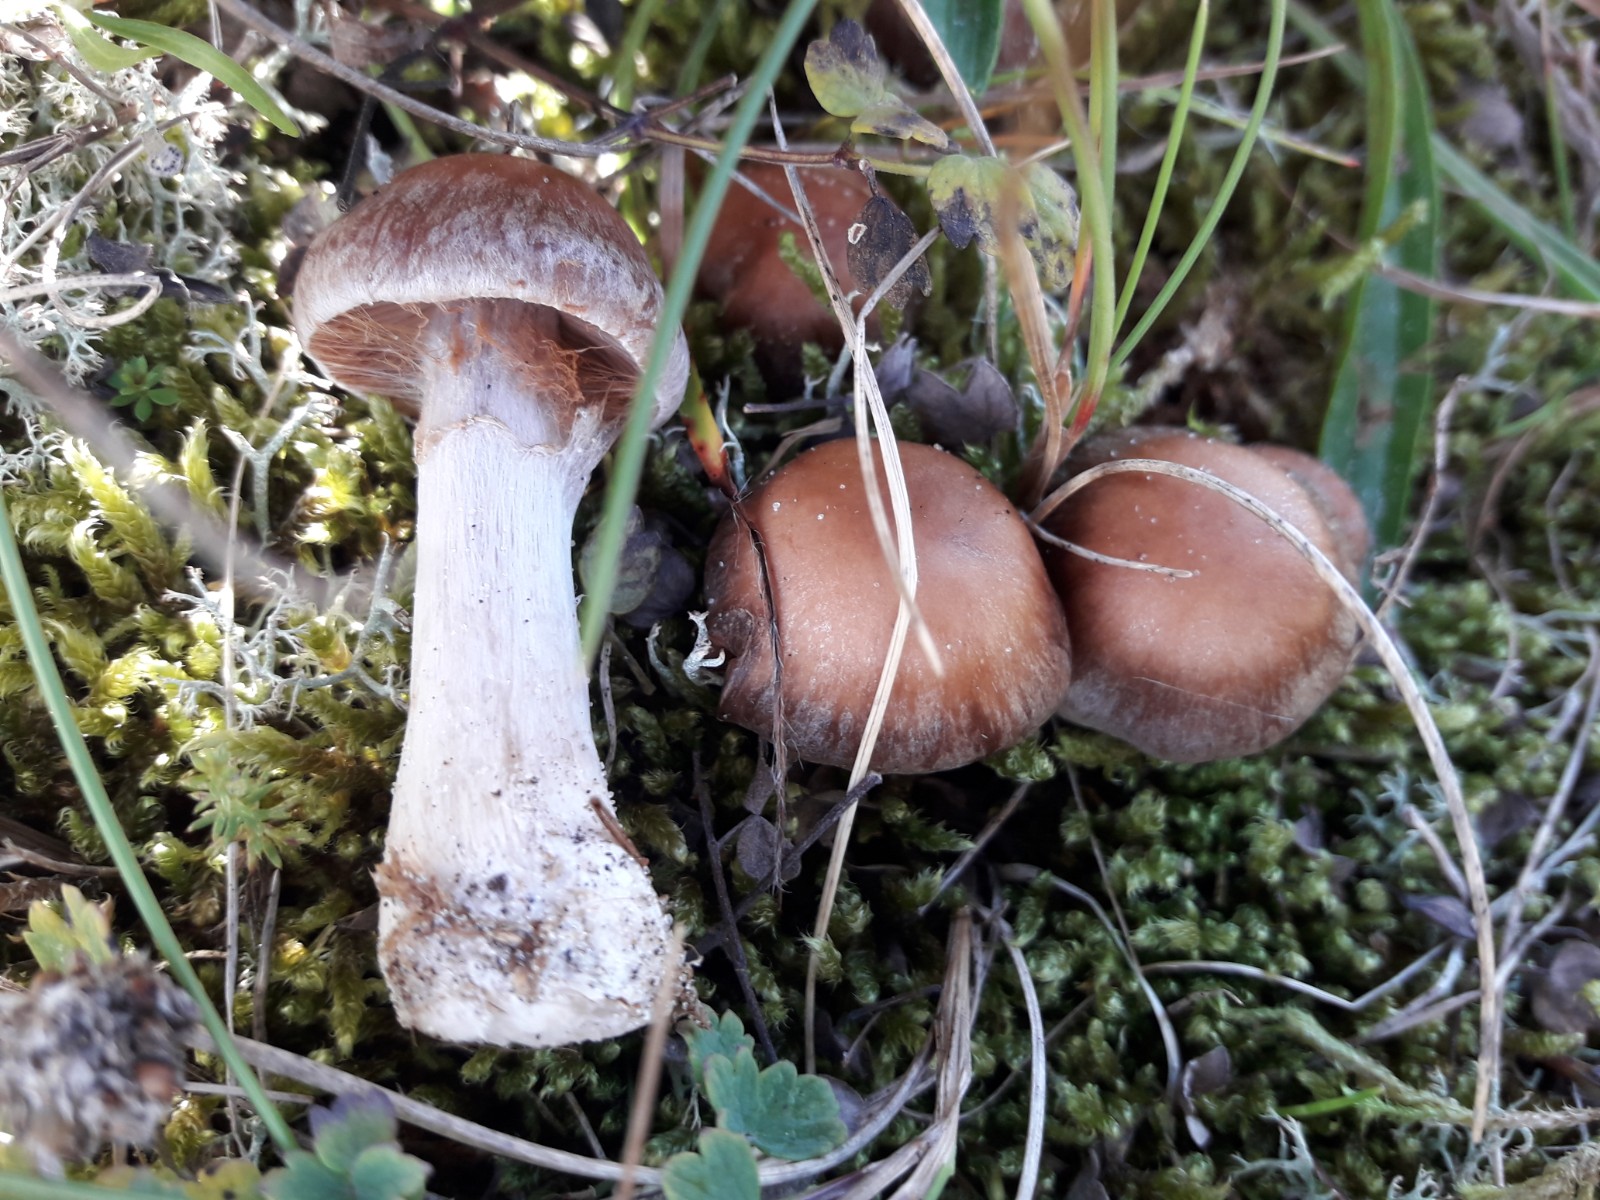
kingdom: Fungi
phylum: Basidiomycota
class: Agaricomycetes
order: Agaricales
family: Cortinariaceae
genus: Cortinarius
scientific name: Cortinarius saturninus
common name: brunviolet slørhat
